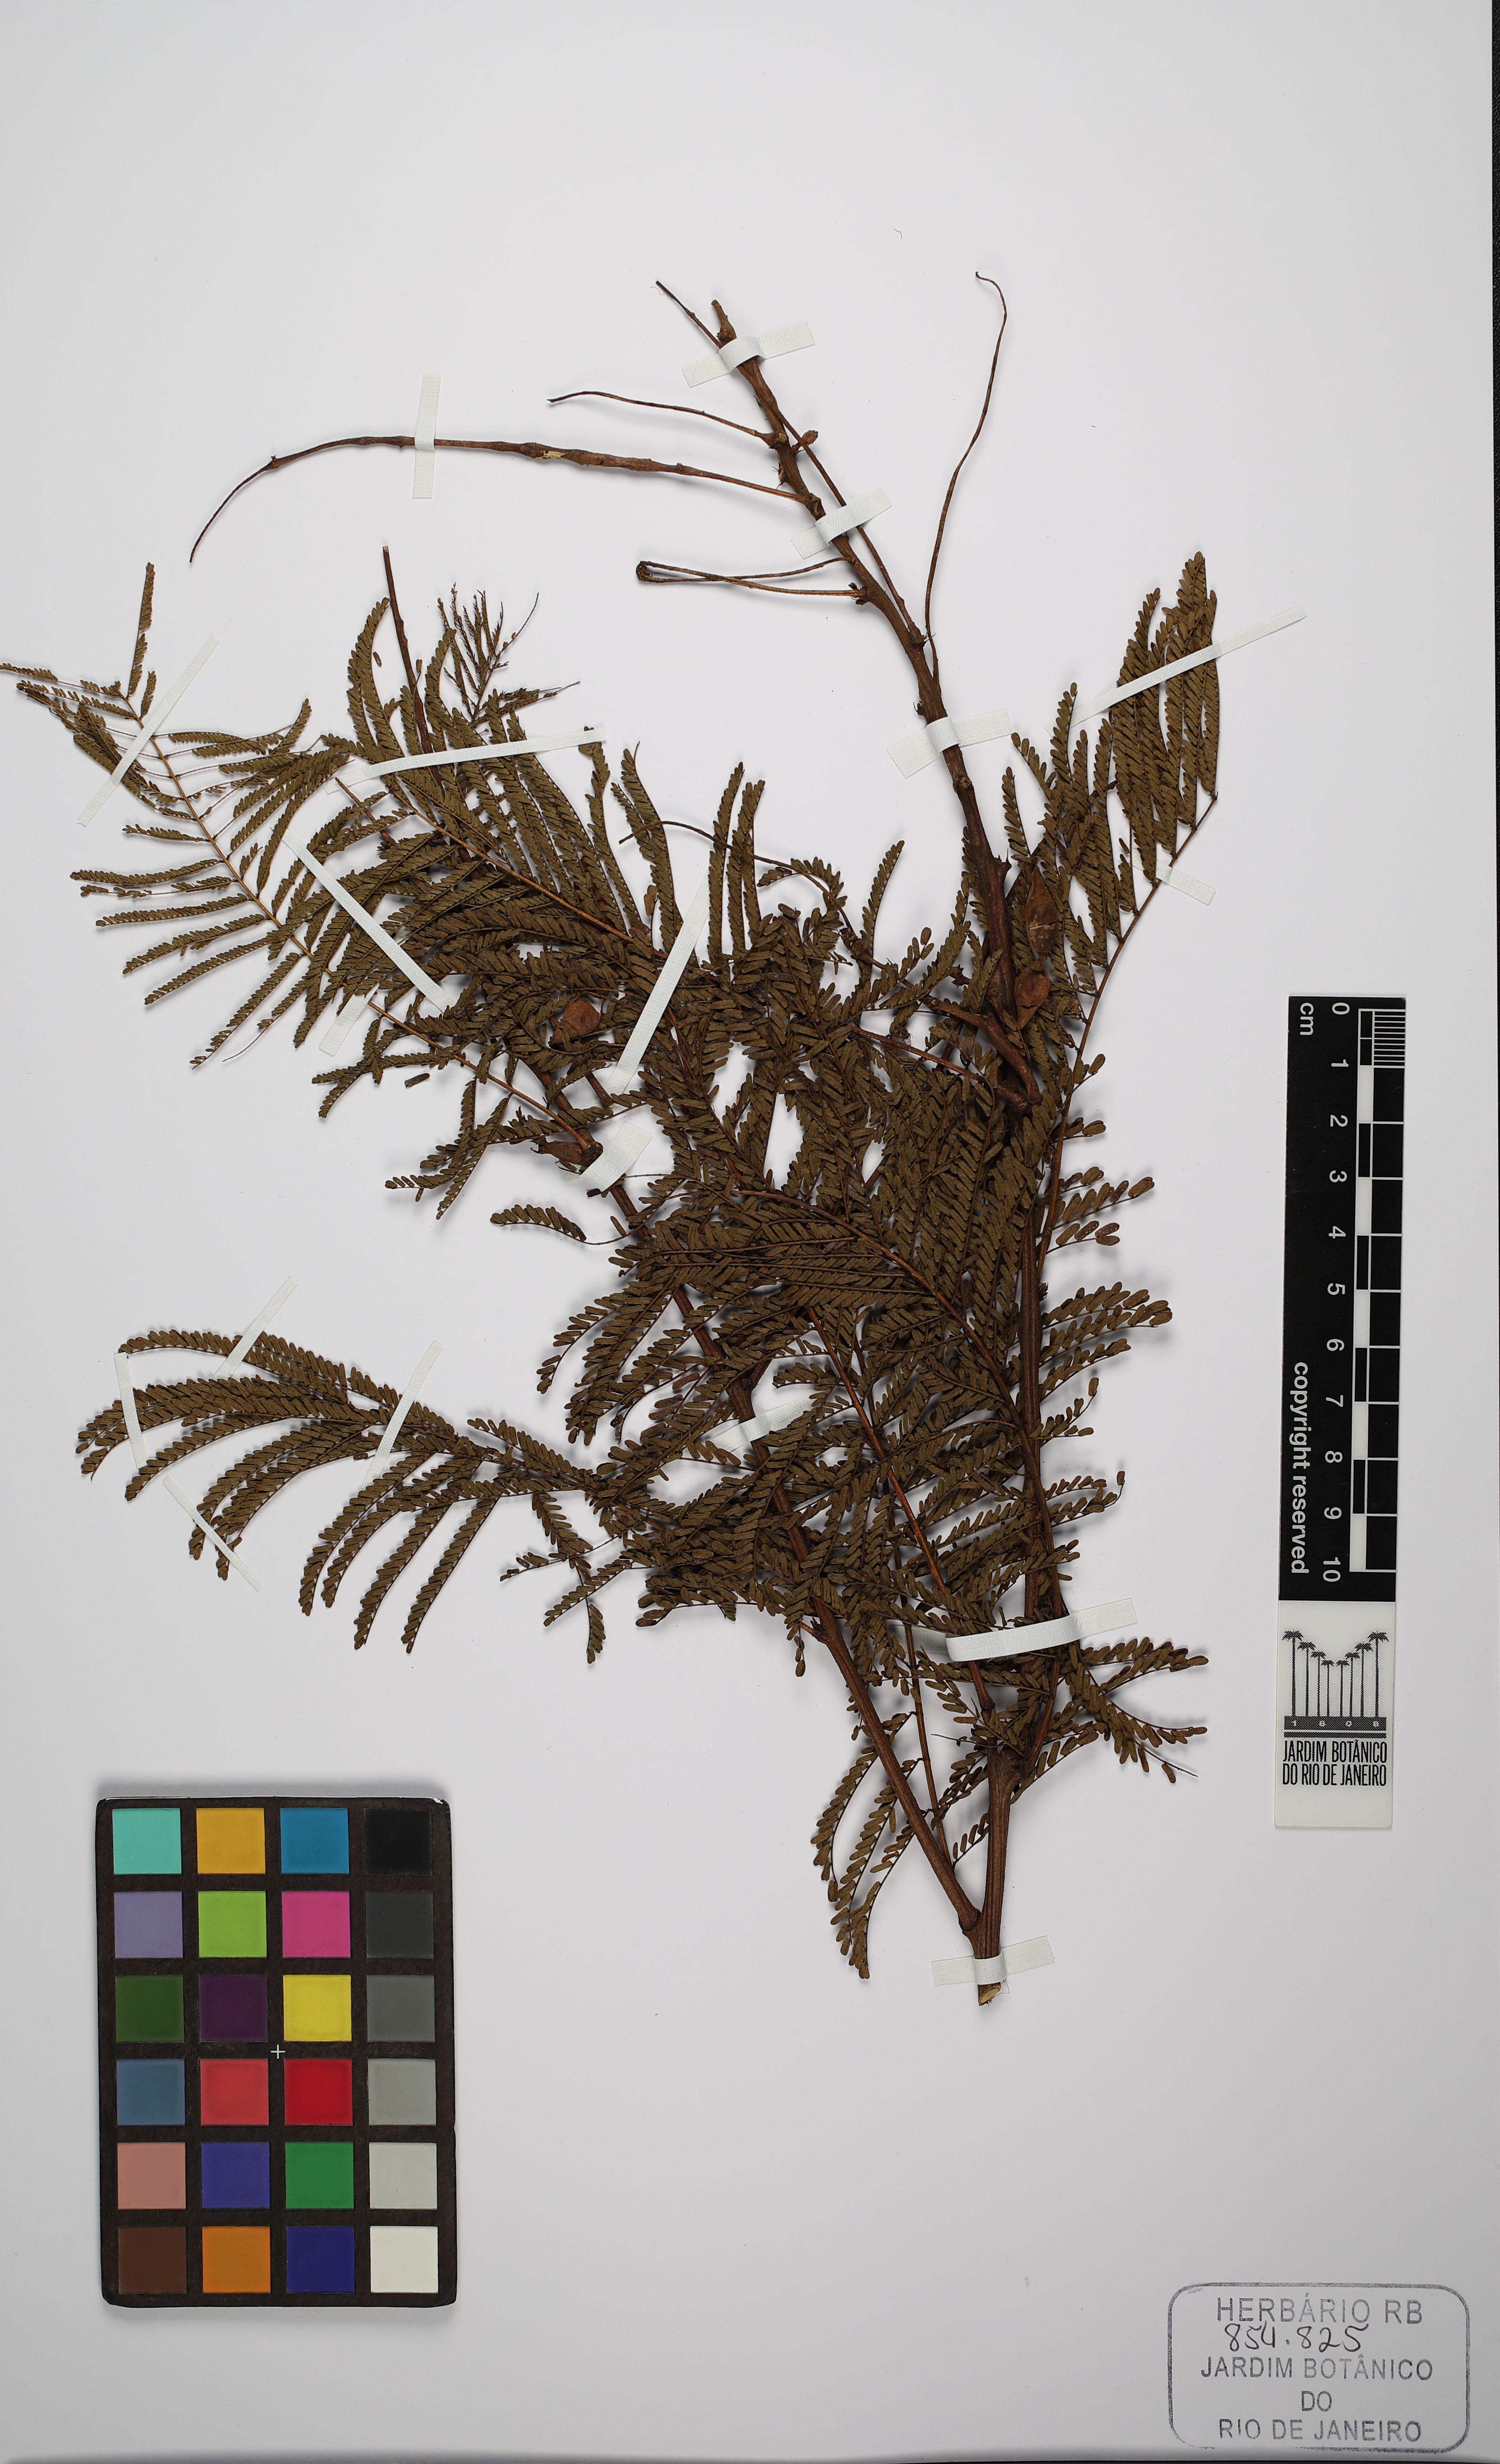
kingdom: Plantae
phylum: Tracheophyta
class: Magnoliopsida
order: Fabales
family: Fabaceae
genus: Mimosa
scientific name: Mimosa caccavariana
